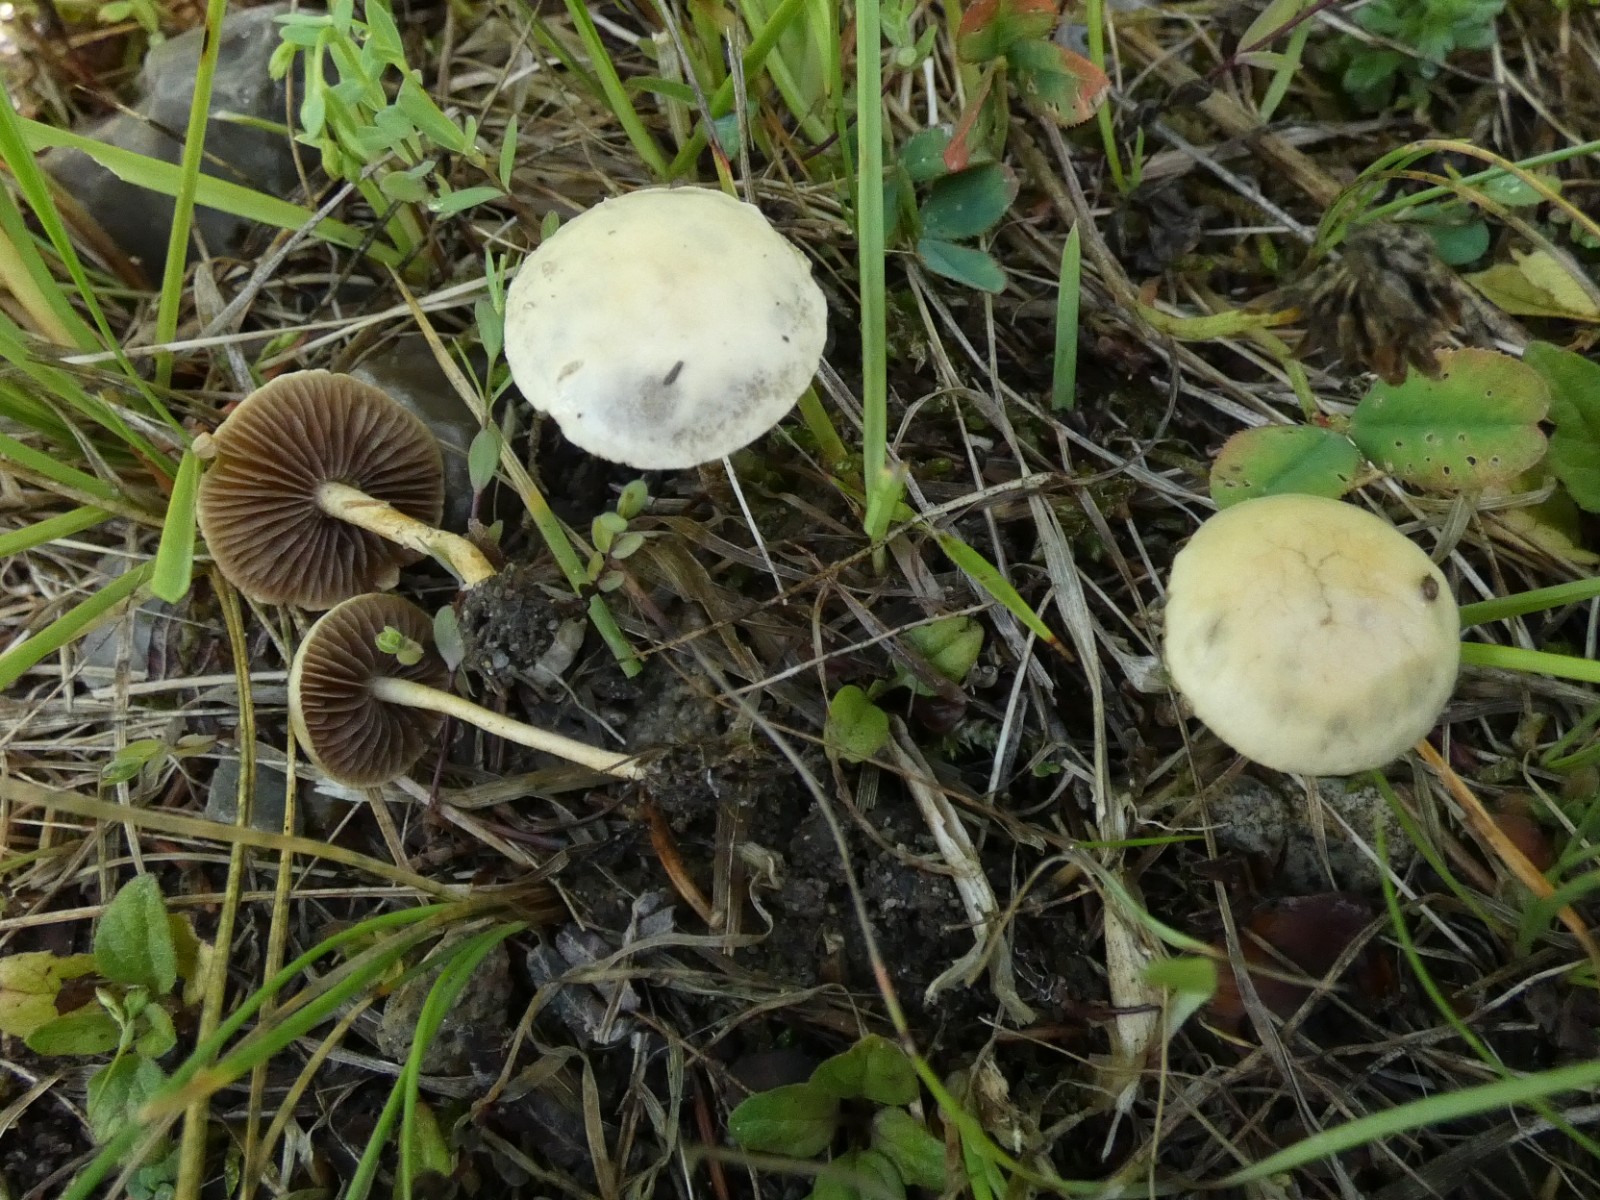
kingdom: Fungi
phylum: Basidiomycota
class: Agaricomycetes
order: Agaricales
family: Strophariaceae
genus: Agrocybe
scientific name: Agrocybe pediades
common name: almindelig agerhat
